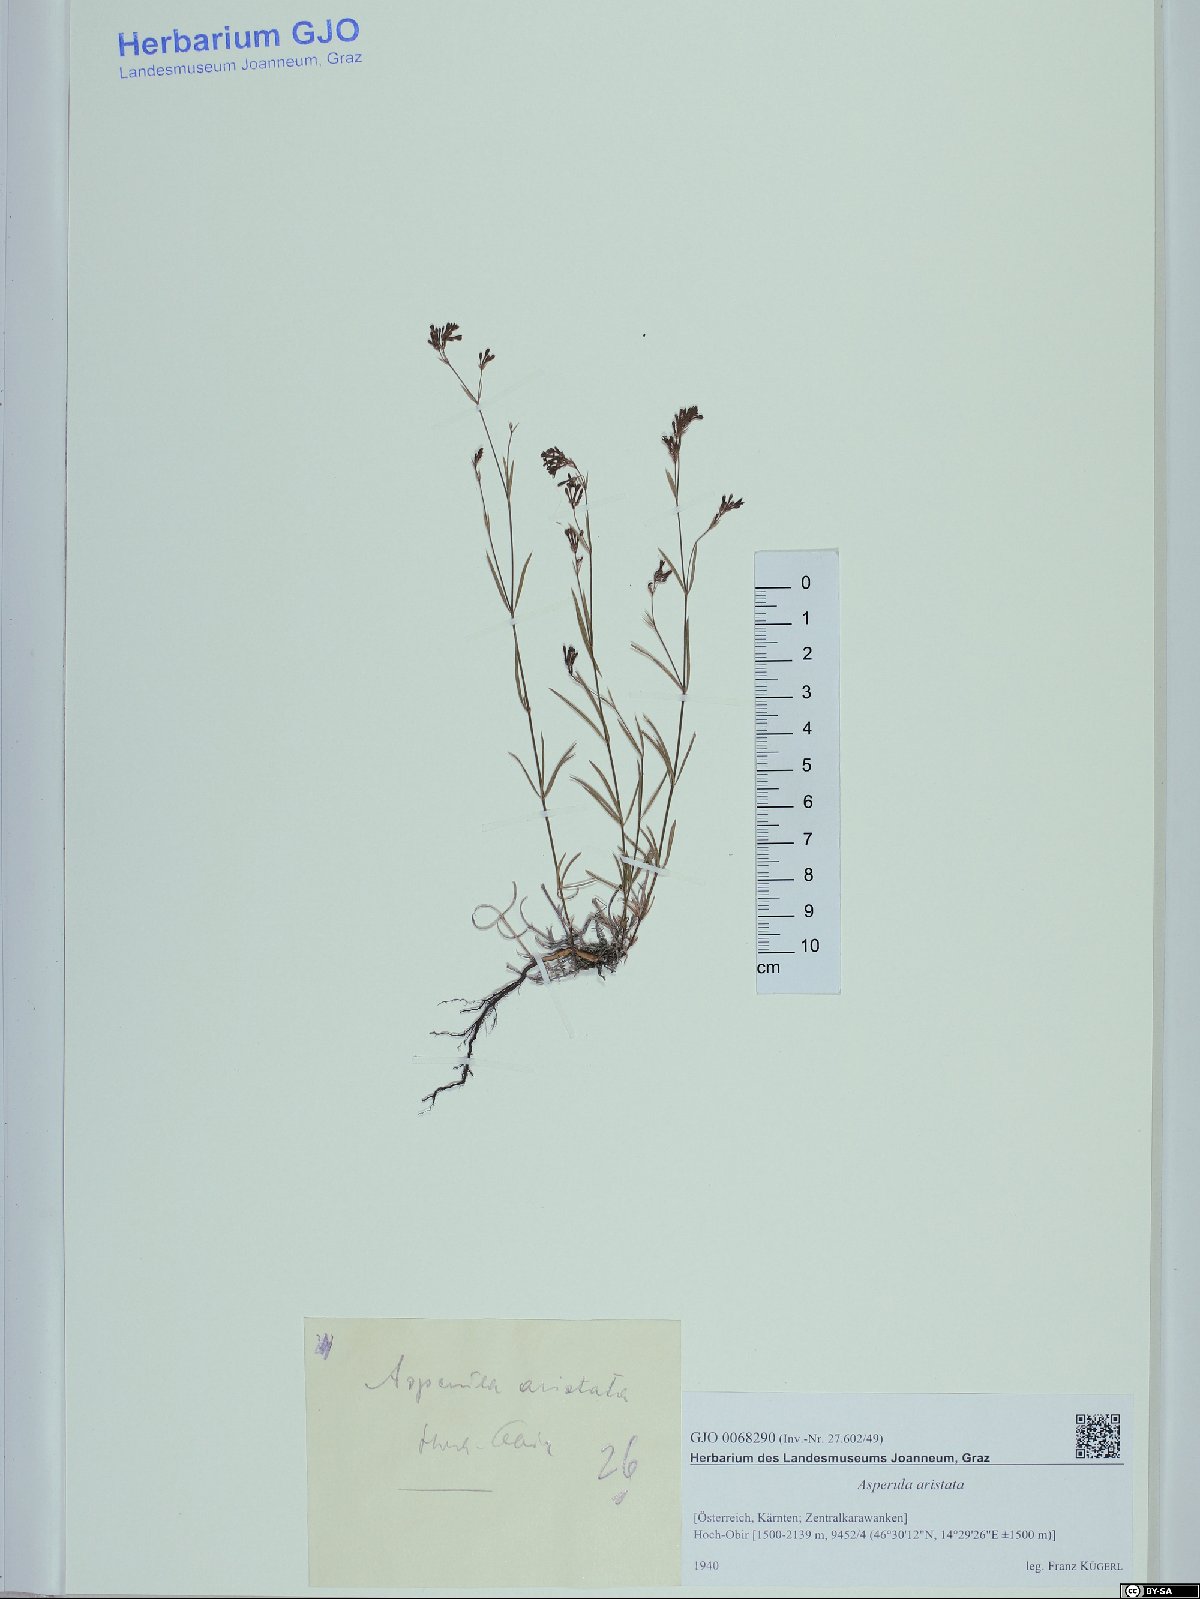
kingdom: Plantae
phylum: Tracheophyta
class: Magnoliopsida
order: Gentianales
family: Rubiaceae
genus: Cynanchica
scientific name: Cynanchica aristata
